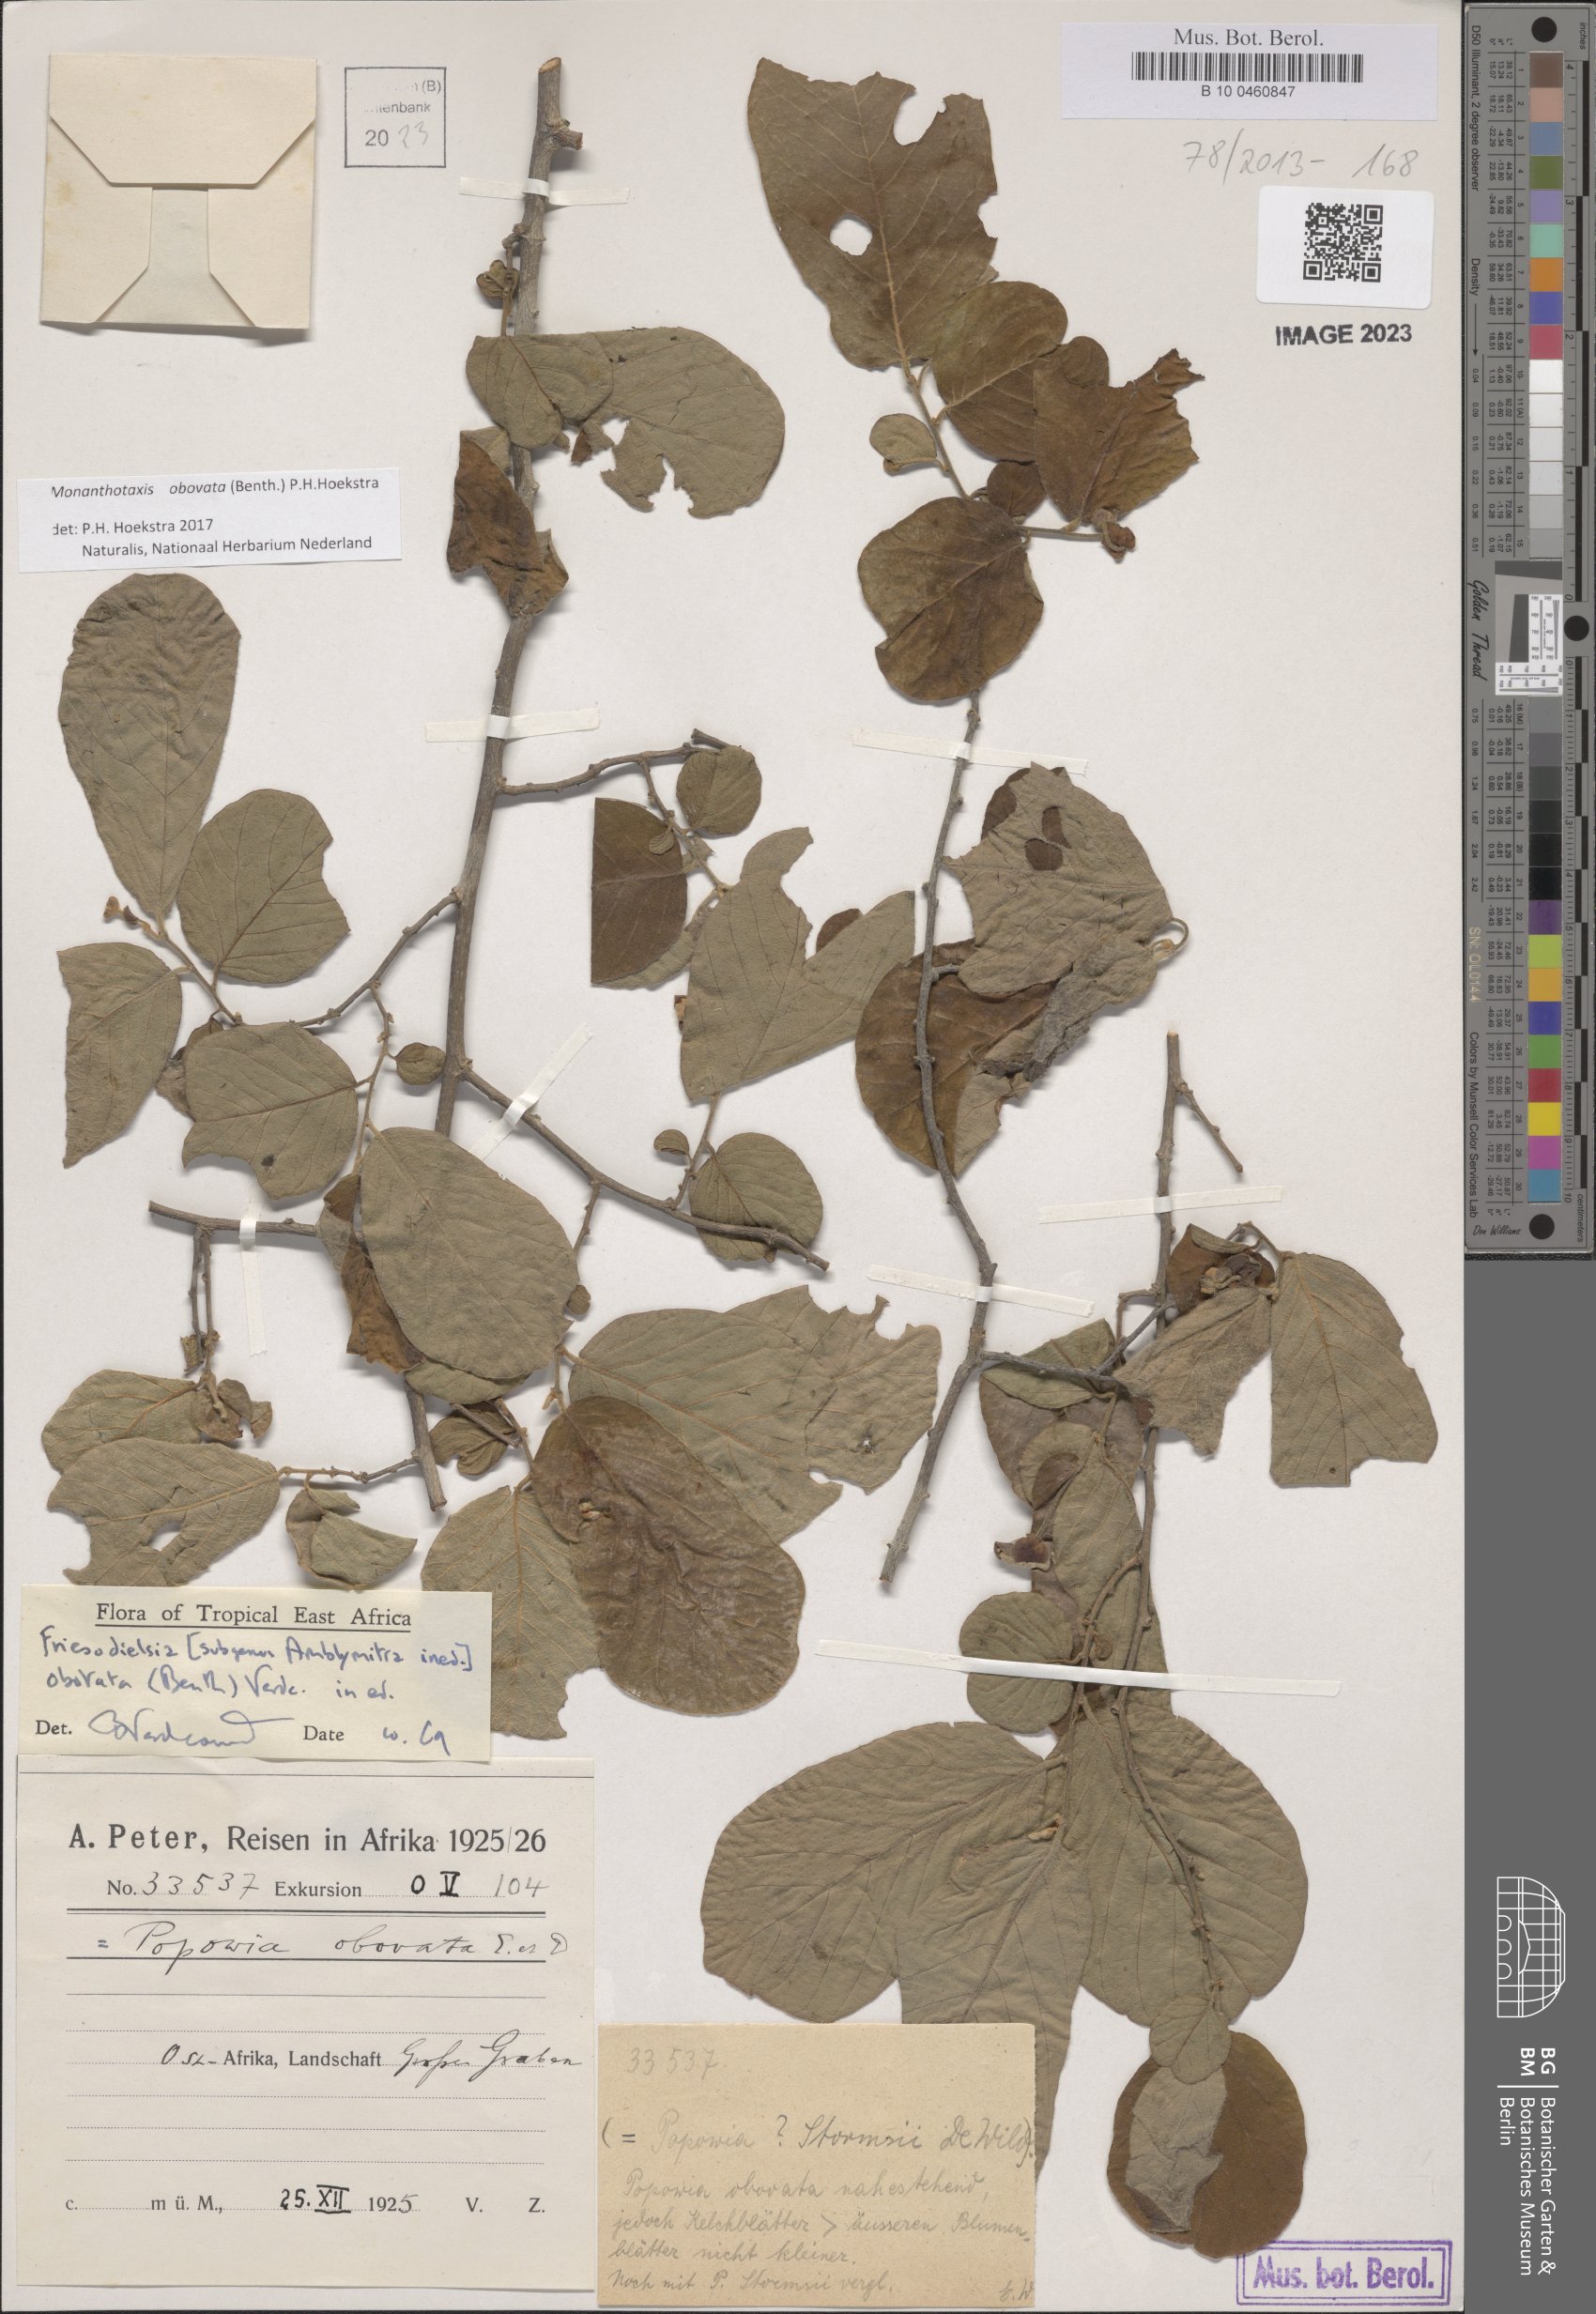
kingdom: Plantae
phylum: Tracheophyta
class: Magnoliopsida
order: Magnoliales
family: Annonaceae
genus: Friesodielsia
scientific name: Friesodielsia obovata
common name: Monkey fingers
